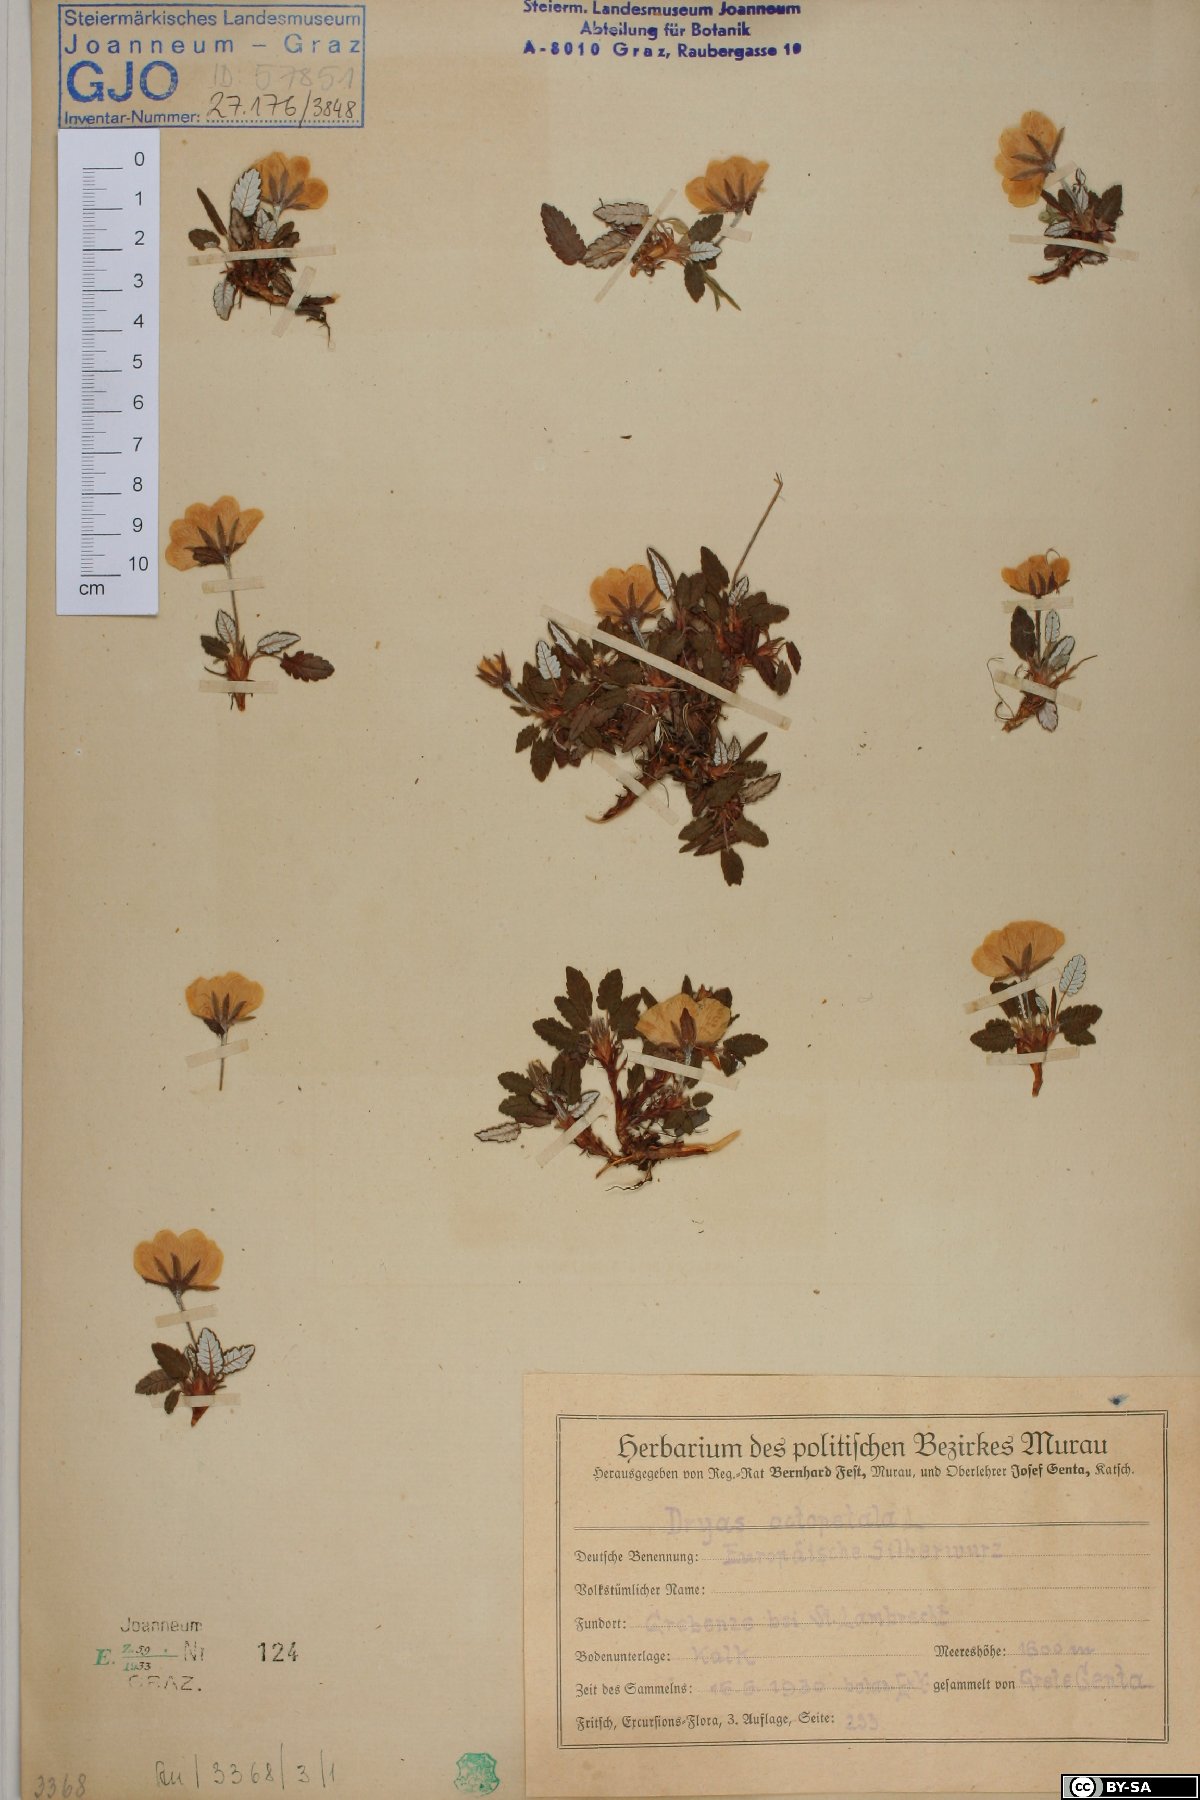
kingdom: Plantae
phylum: Tracheophyta
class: Magnoliopsida
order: Rosales
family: Rosaceae
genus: Dryas
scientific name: Dryas octopetala
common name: Eight-petal mountain-avens
